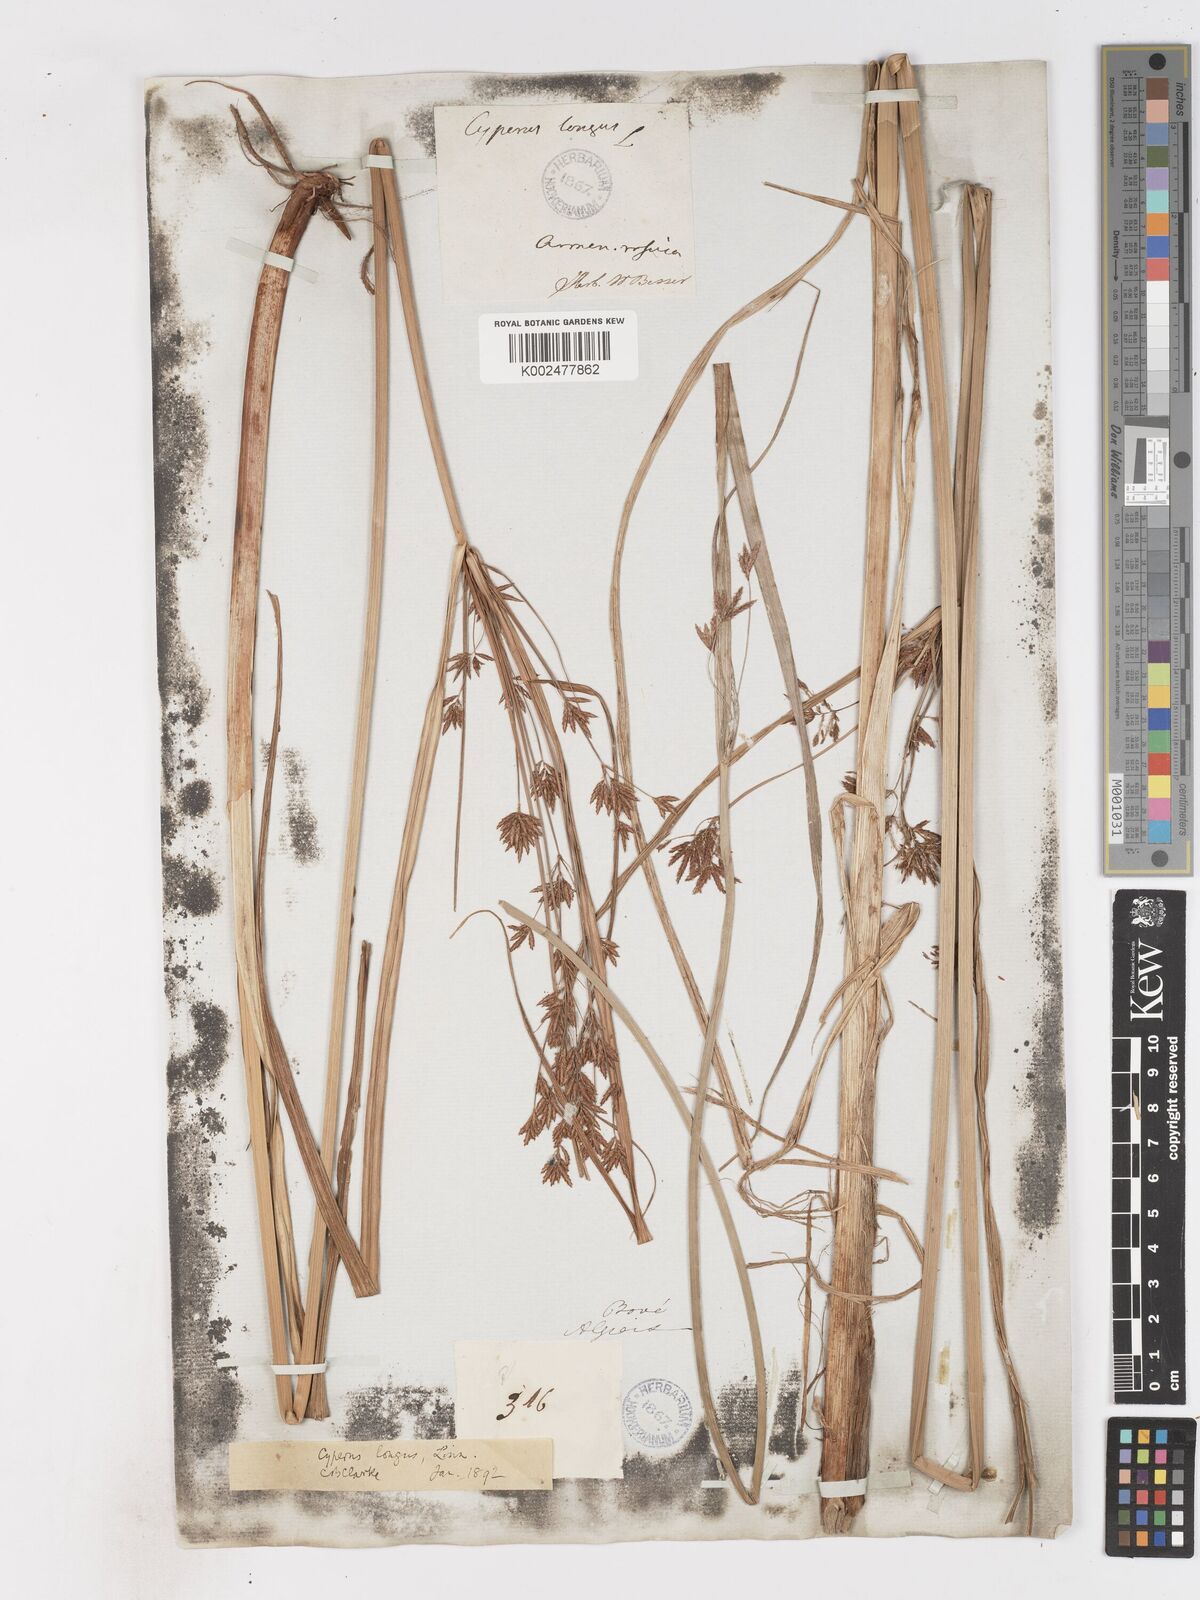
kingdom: Plantae
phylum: Tracheophyta
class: Liliopsida
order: Poales
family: Cyperaceae
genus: Cyperus
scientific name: Cyperus longus
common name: Galingale
